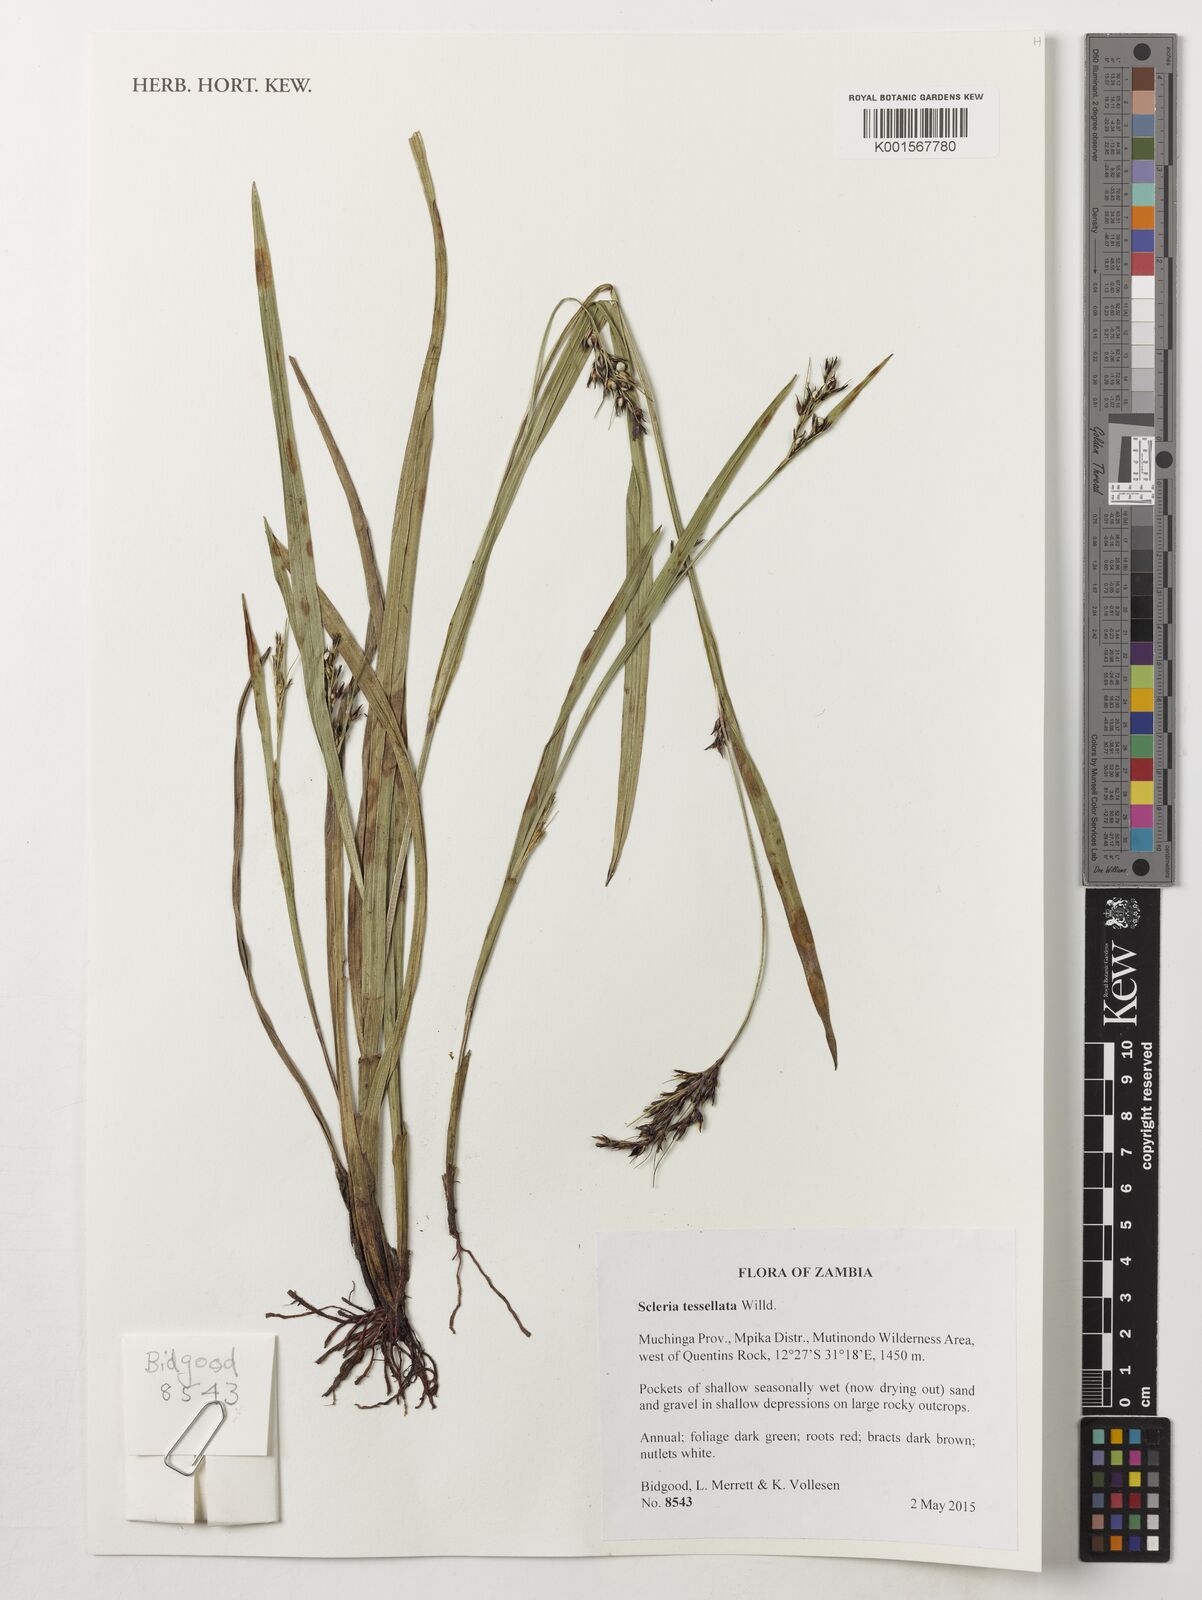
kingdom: Plantae
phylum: Tracheophyta
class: Liliopsida
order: Poales
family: Cyperaceae
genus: Scleria
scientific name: Scleria tessellata
